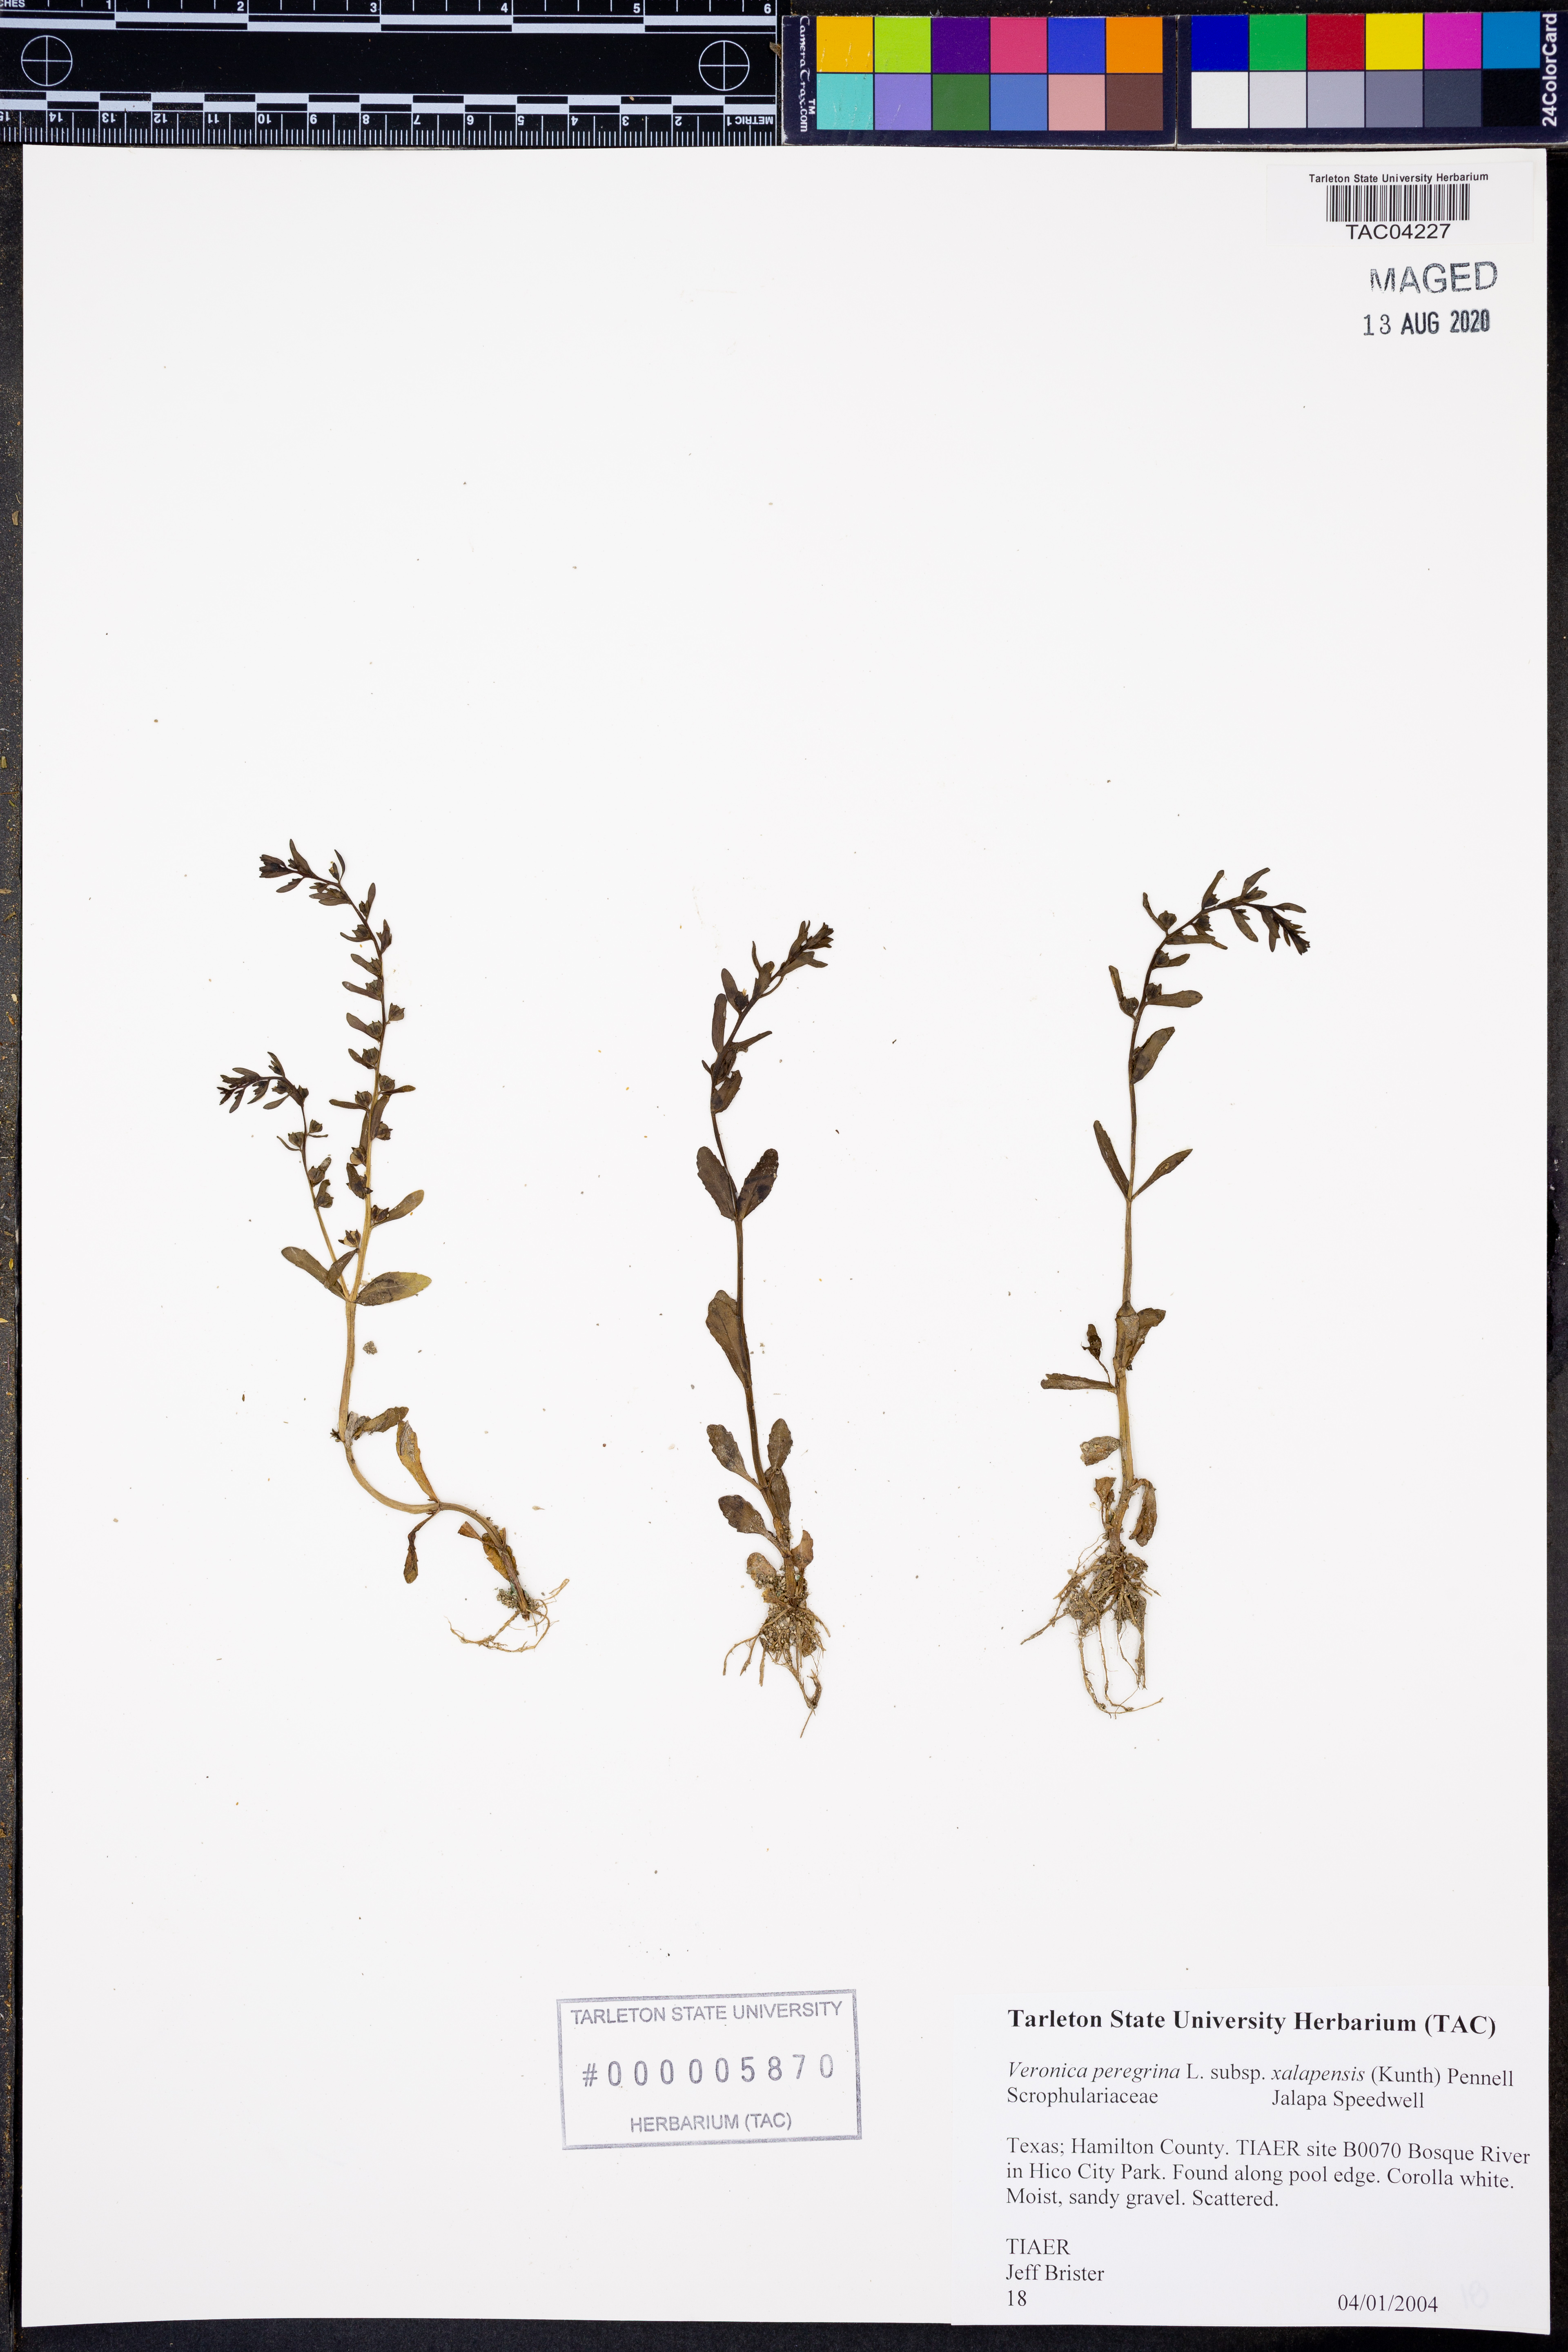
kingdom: Plantae
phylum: Tracheophyta
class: Magnoliopsida
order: Lamiales
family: Plantaginaceae
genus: Veronica
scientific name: Veronica peregrina
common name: Neckweed
